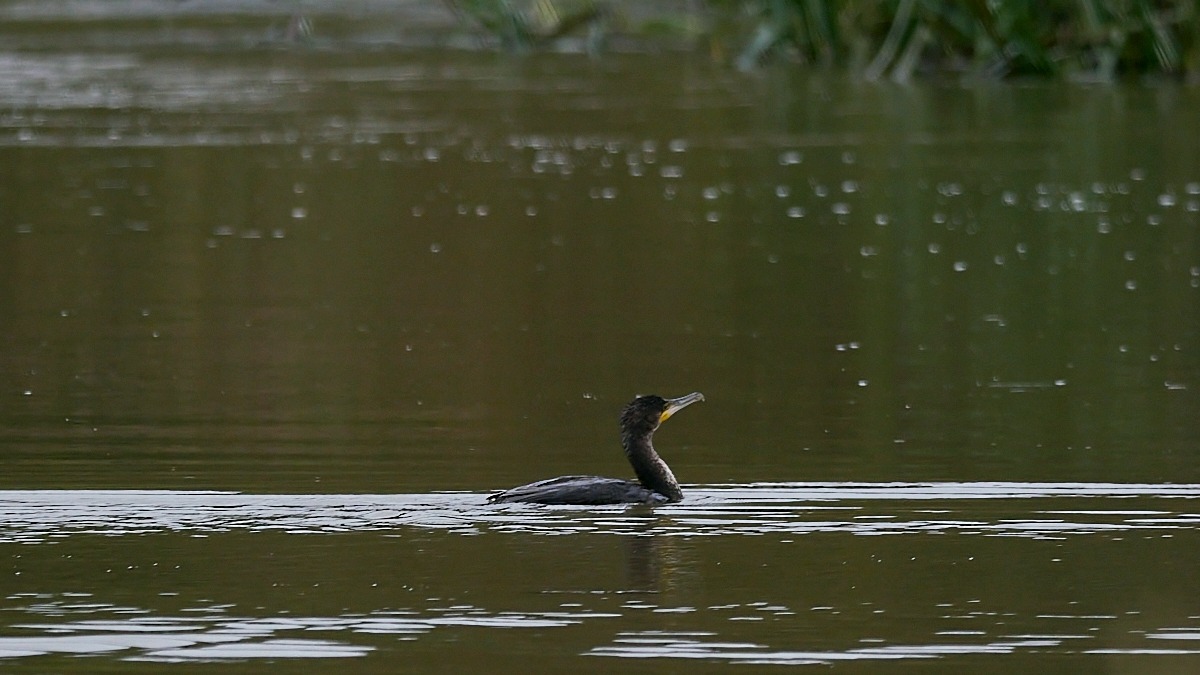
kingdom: Animalia
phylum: Chordata
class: Aves
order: Suliformes
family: Phalacrocoracidae
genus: Phalacrocorax
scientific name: Phalacrocorax carbo
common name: Skarv
